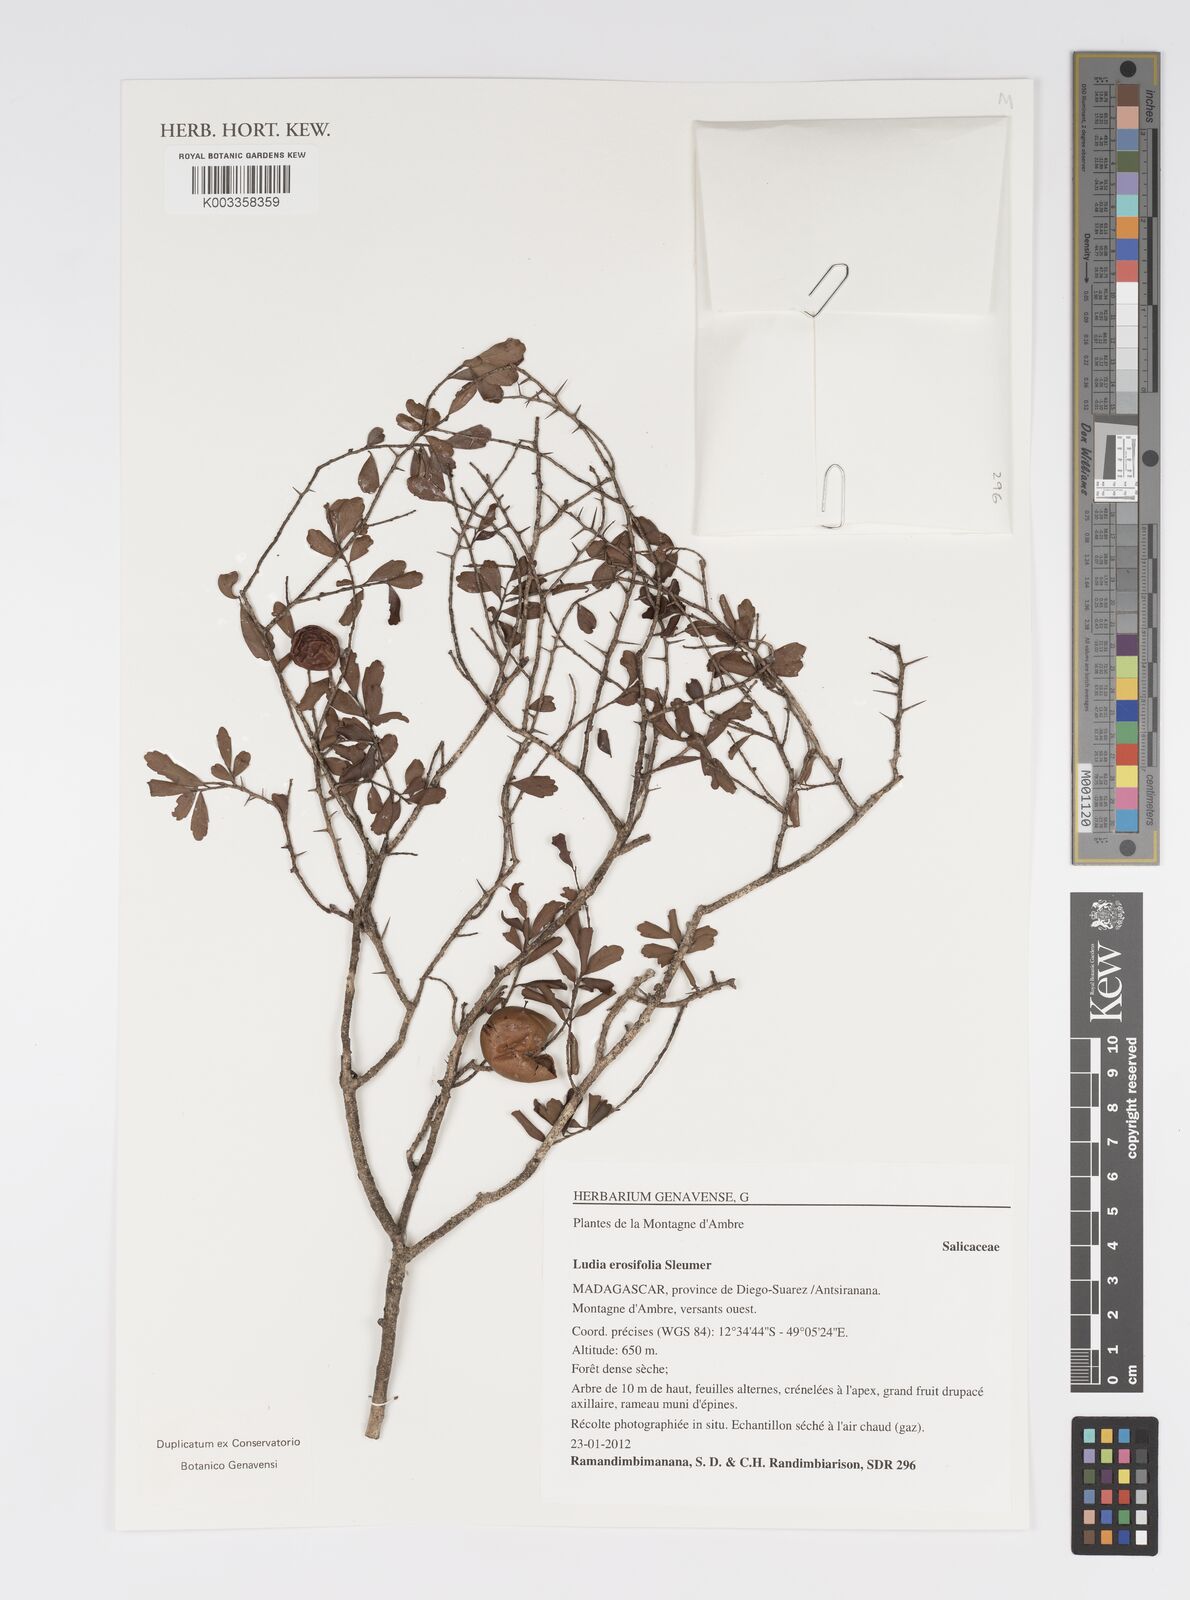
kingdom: Plantae
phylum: Tracheophyta
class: Magnoliopsida
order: Malpighiales
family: Salicaceae
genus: Ludia
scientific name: Ludia erosifolia
